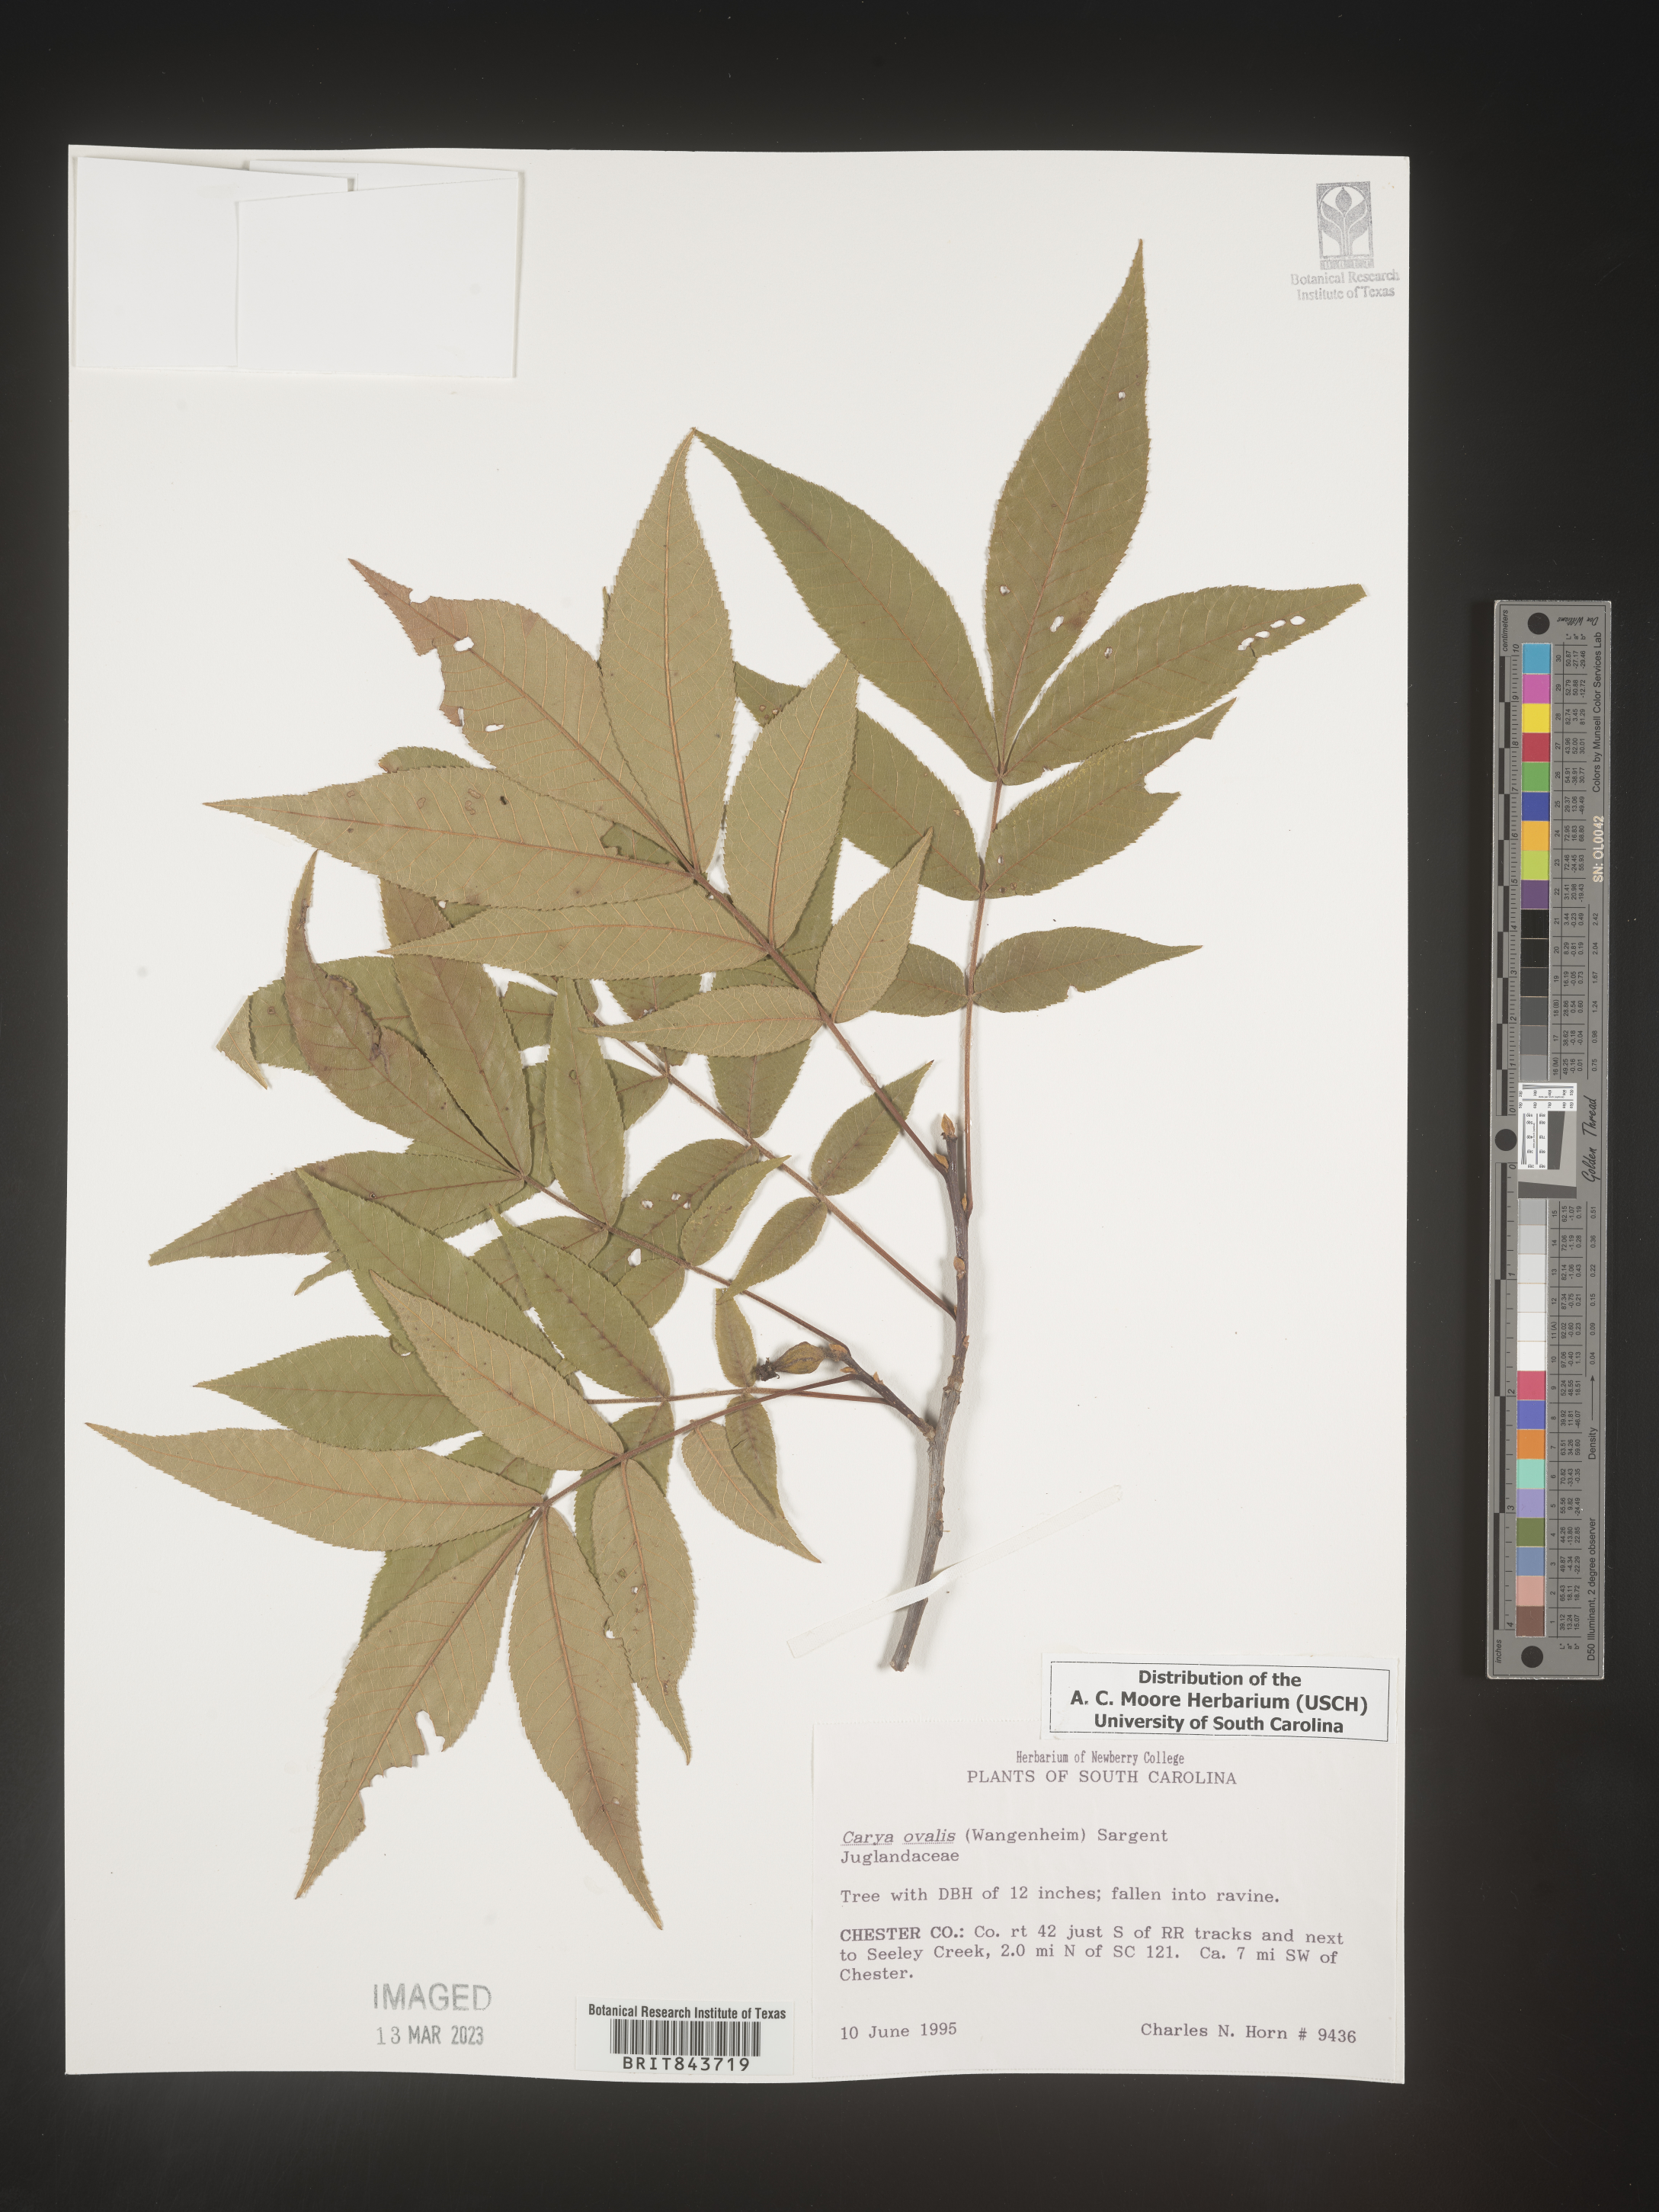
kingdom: Plantae
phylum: Tracheophyta
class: Magnoliopsida
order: Fagales
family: Juglandaceae
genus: Carya
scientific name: Carya ovalis
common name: False shagbark
